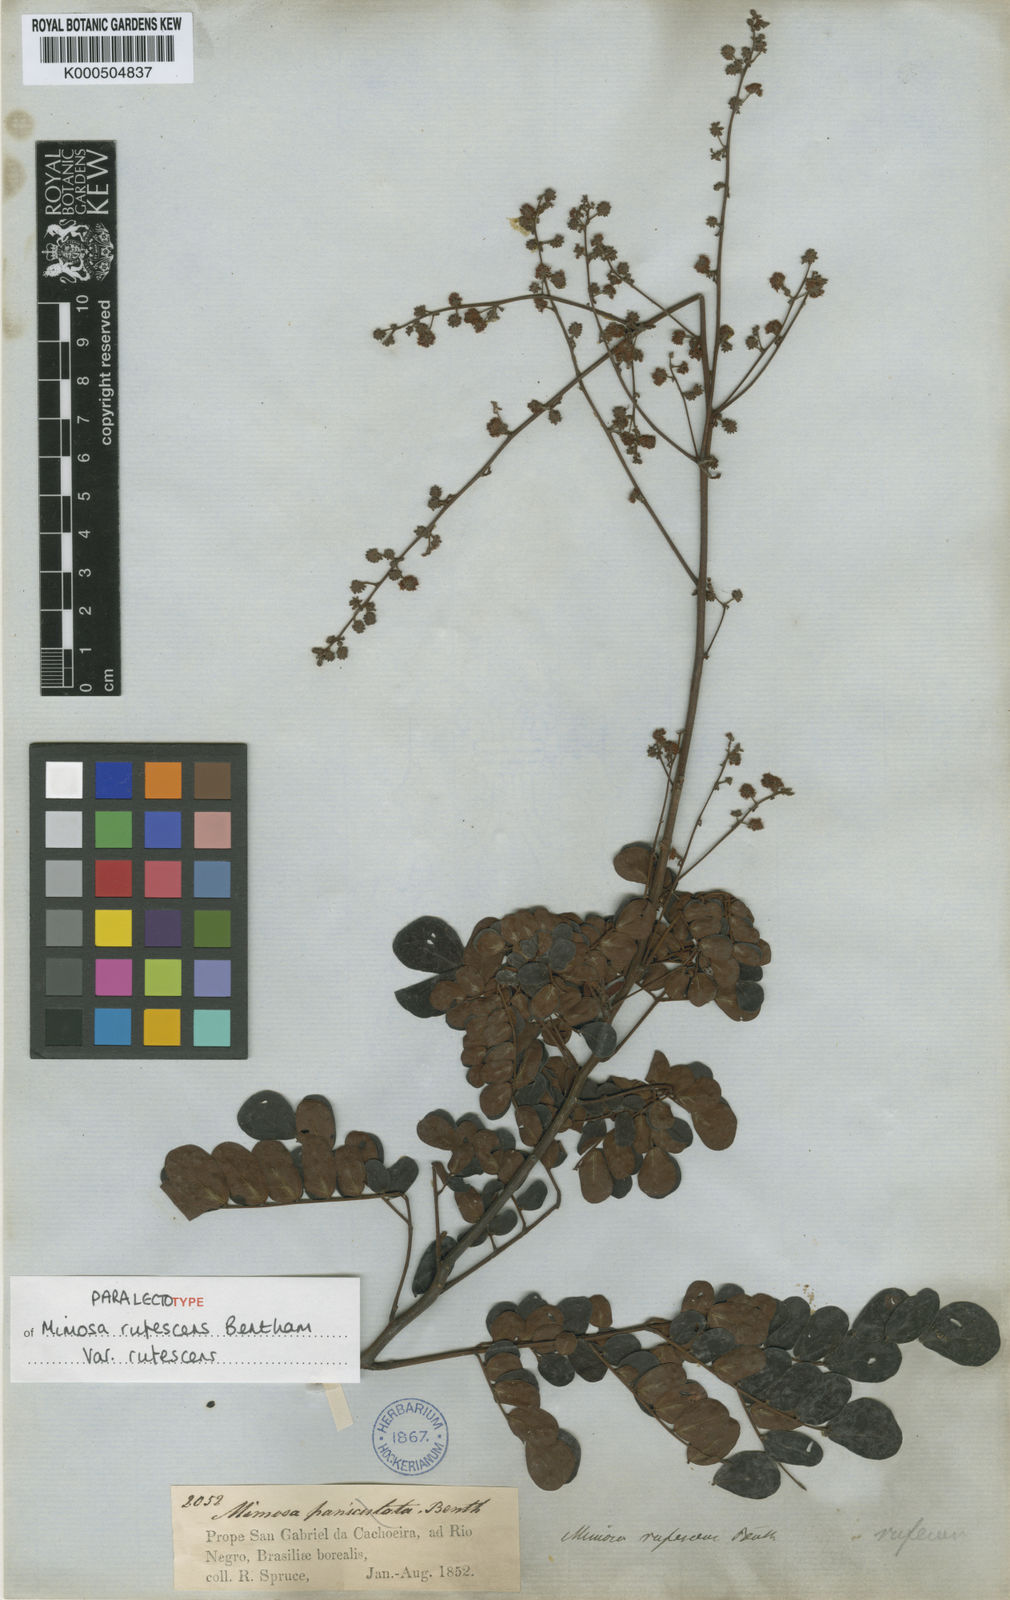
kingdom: Plantae
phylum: Tracheophyta
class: Magnoliopsida
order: Fabales
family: Fabaceae
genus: Mimosa
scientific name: Mimosa rufescens
